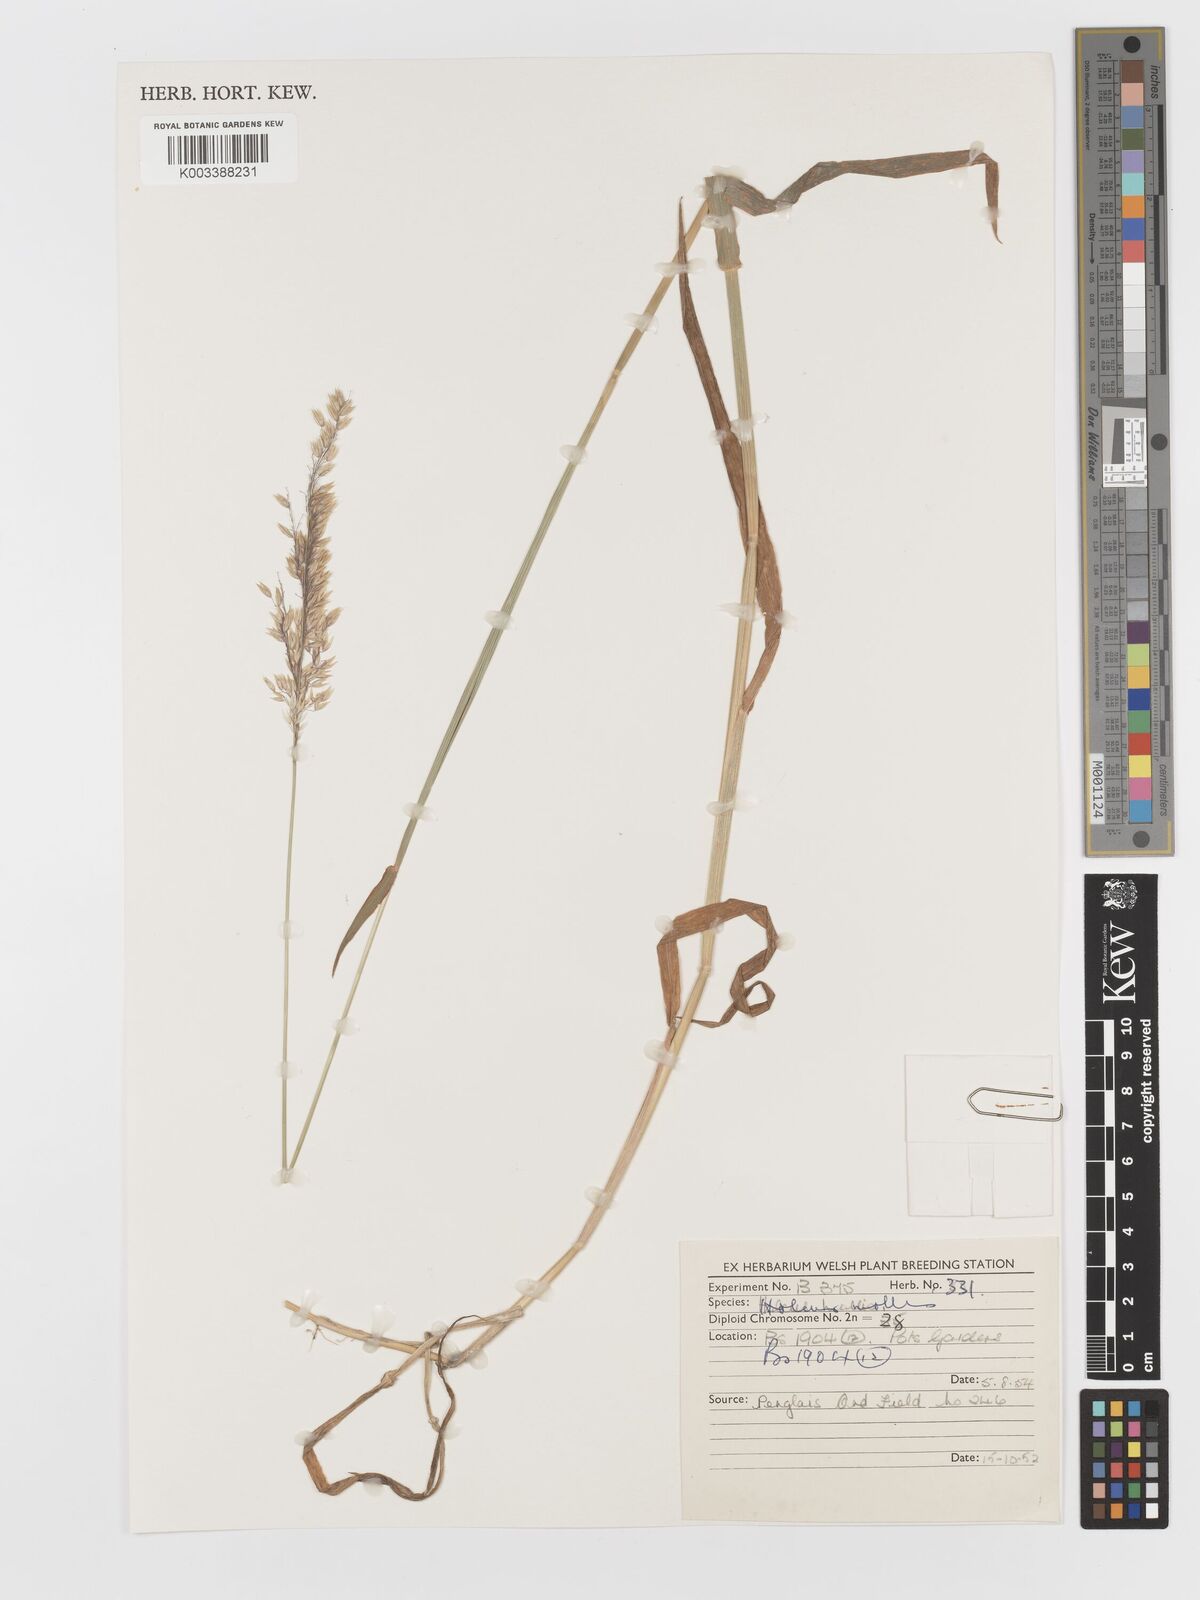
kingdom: Plantae
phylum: Tracheophyta
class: Liliopsida
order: Poales
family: Poaceae
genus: Holcus
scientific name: Holcus hierrensis
